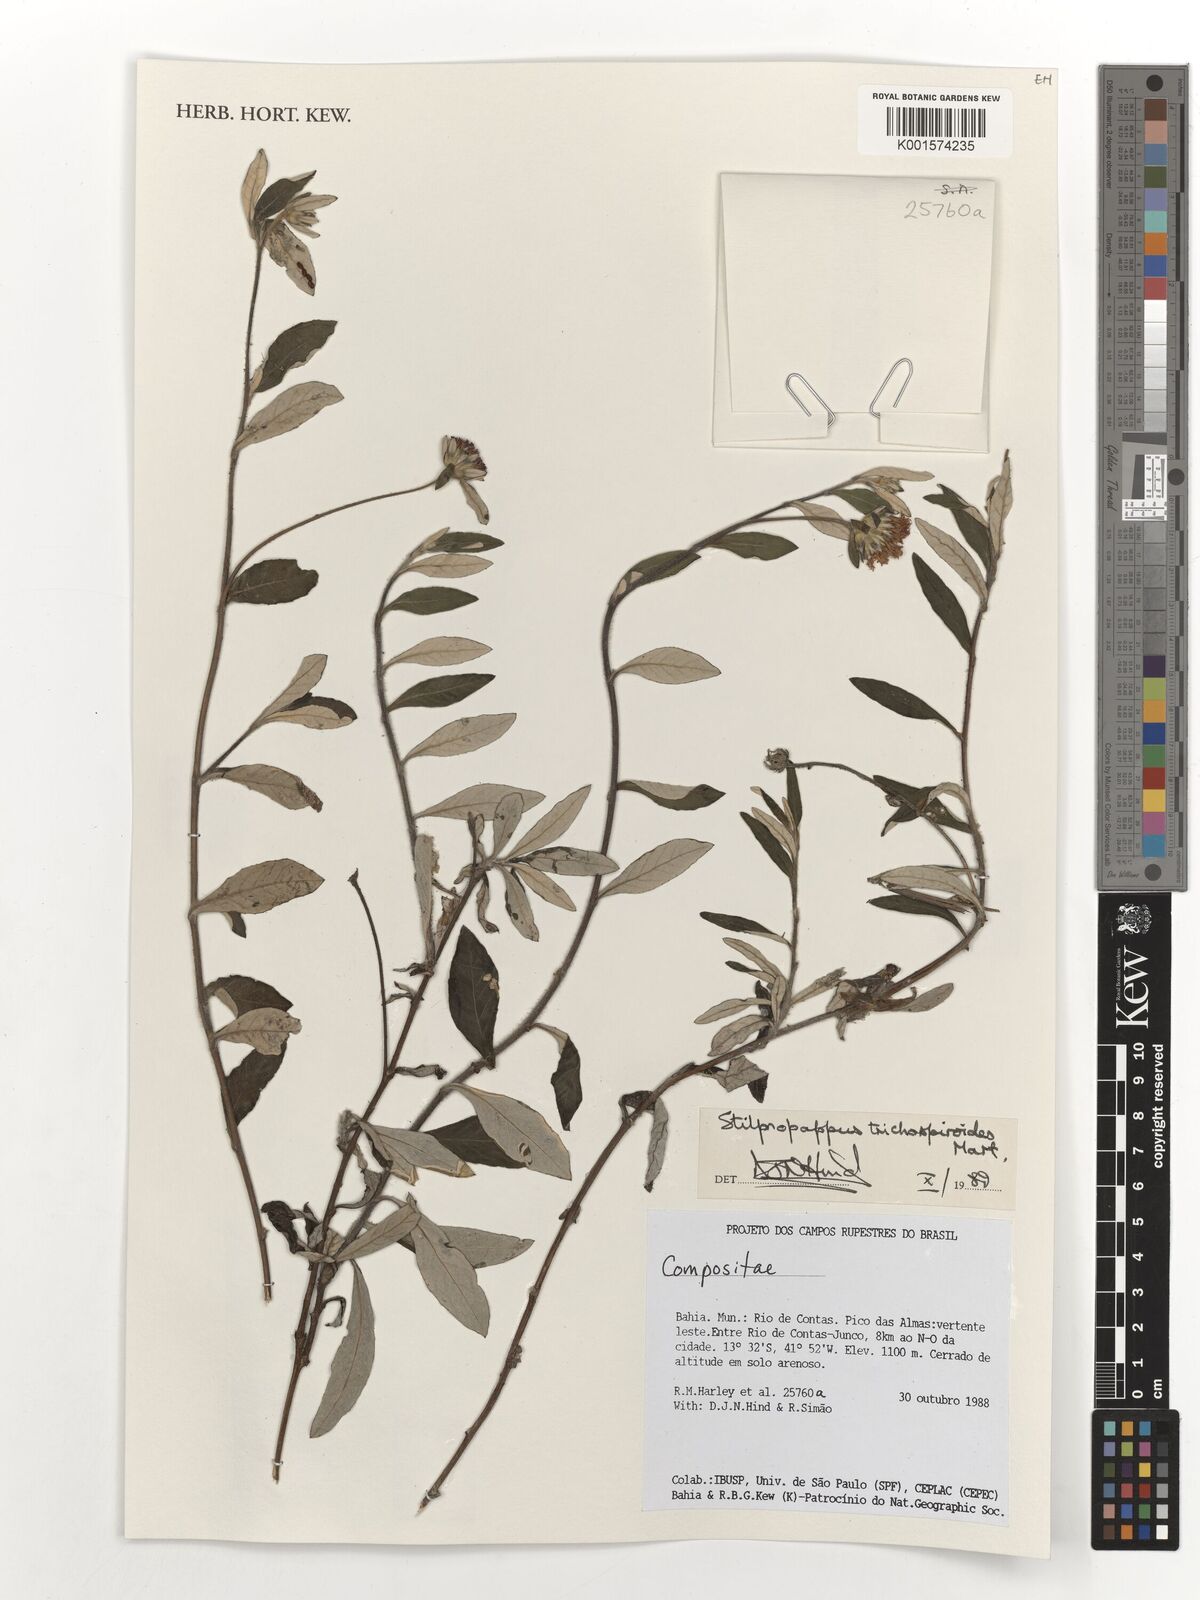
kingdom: Plantae
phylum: Tracheophyta
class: Magnoliopsida
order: Asterales
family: Asteraceae
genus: Stilpnopappus
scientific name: Stilpnopappus trichospiroides
